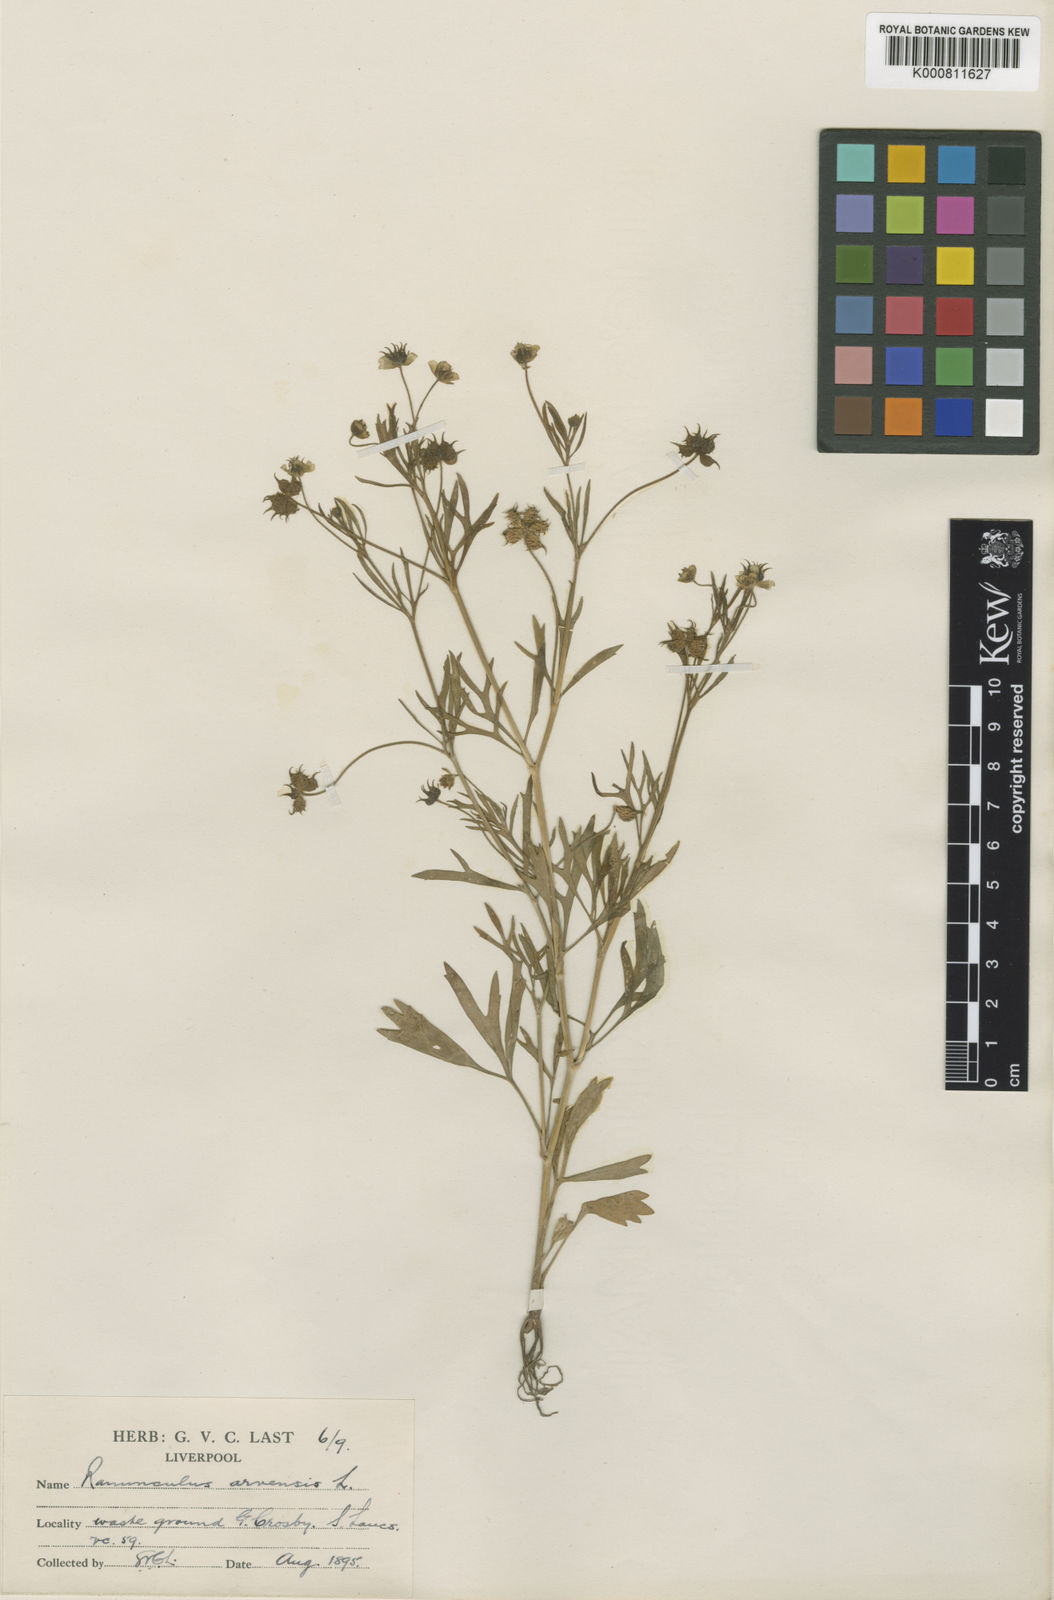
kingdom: Plantae
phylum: Tracheophyta
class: Magnoliopsida
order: Ranunculales
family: Ranunculaceae
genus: Ranunculus
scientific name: Ranunculus arvensis
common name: Corn buttercup
